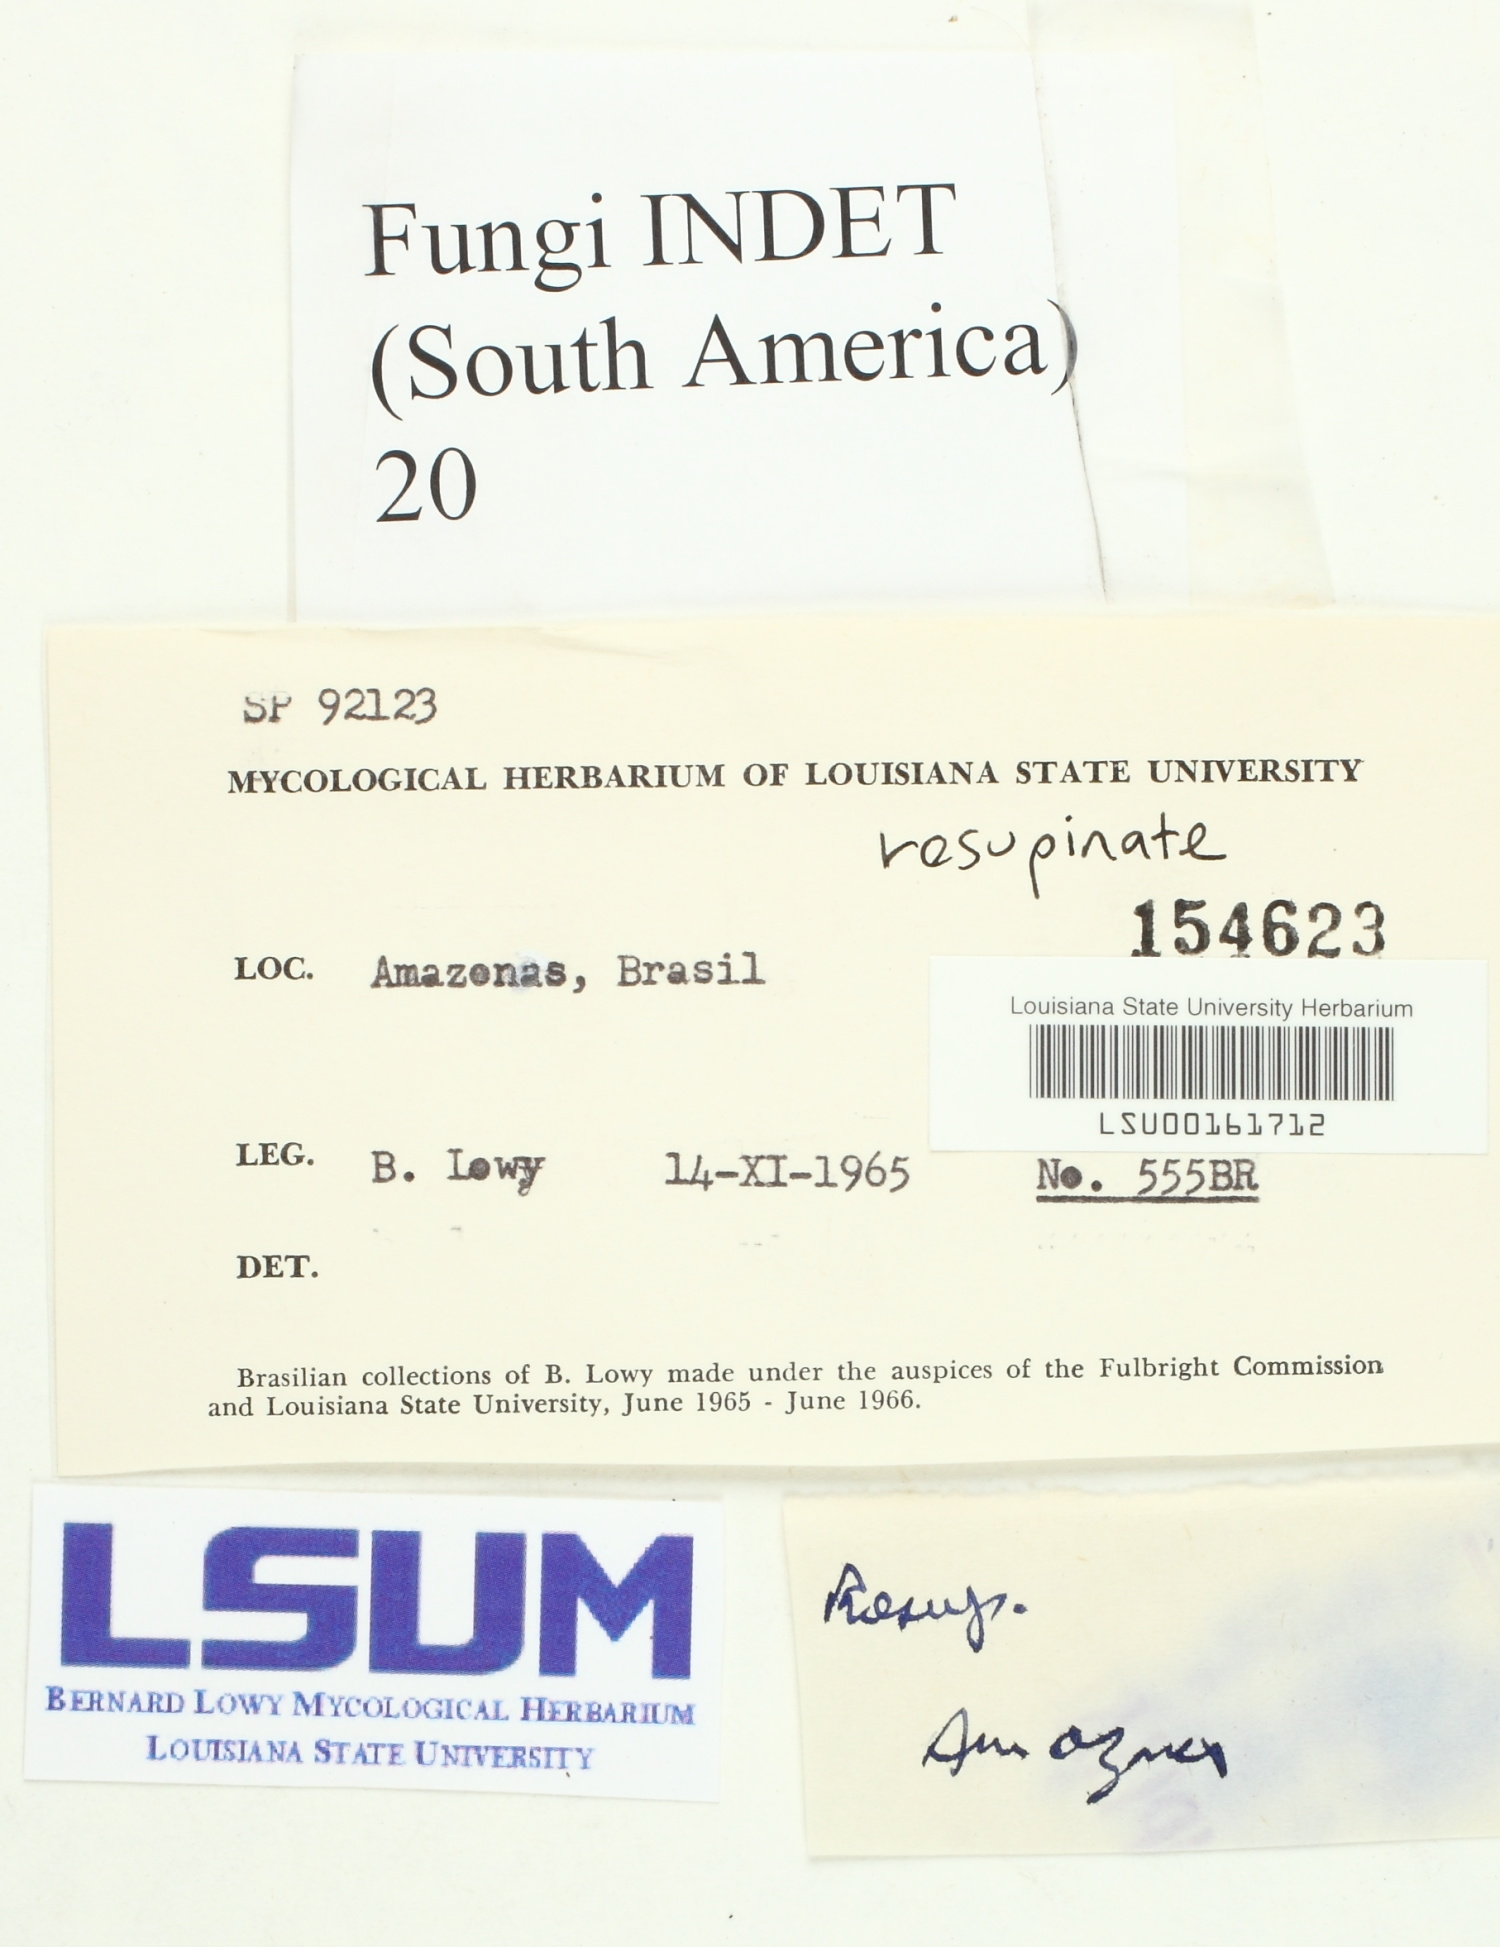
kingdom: Fungi
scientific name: Fungi
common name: Fungi
